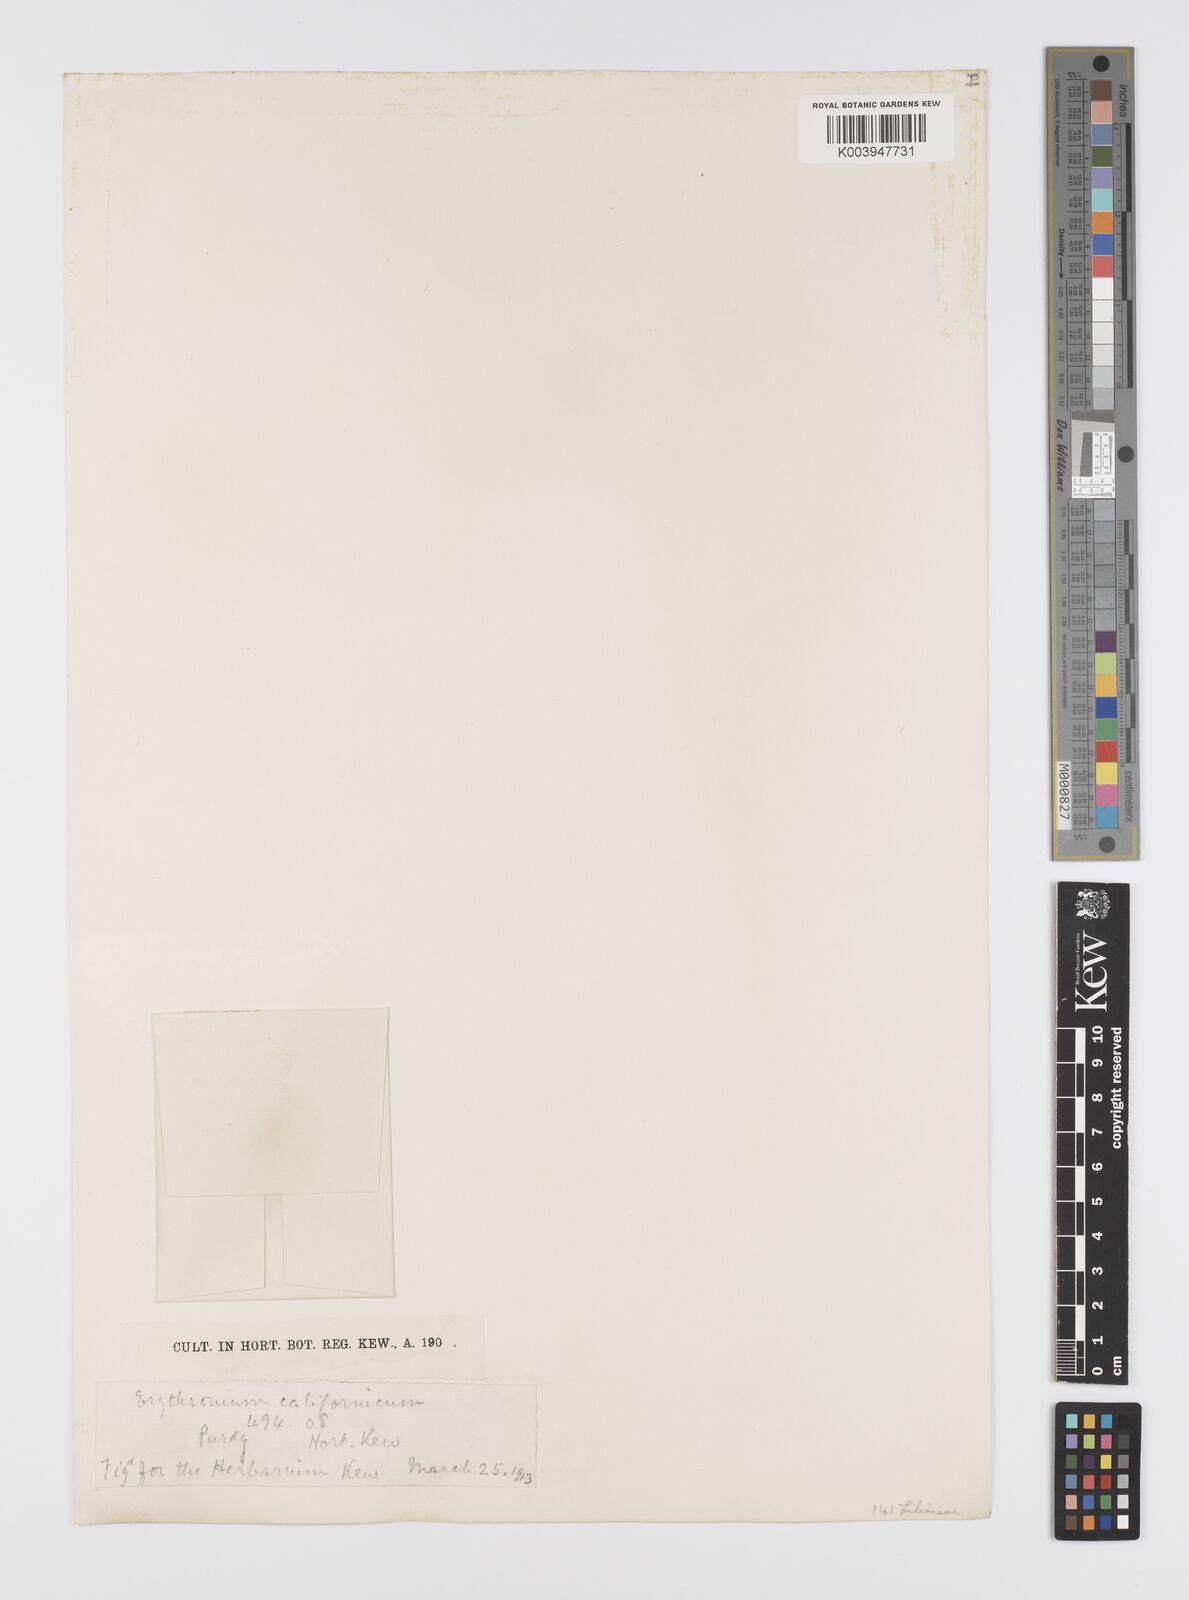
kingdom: Plantae
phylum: Tracheophyta
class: Liliopsida
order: Liliales
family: Liliaceae
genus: Erythronium
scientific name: Erythronium californicum
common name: Fawn-lily
